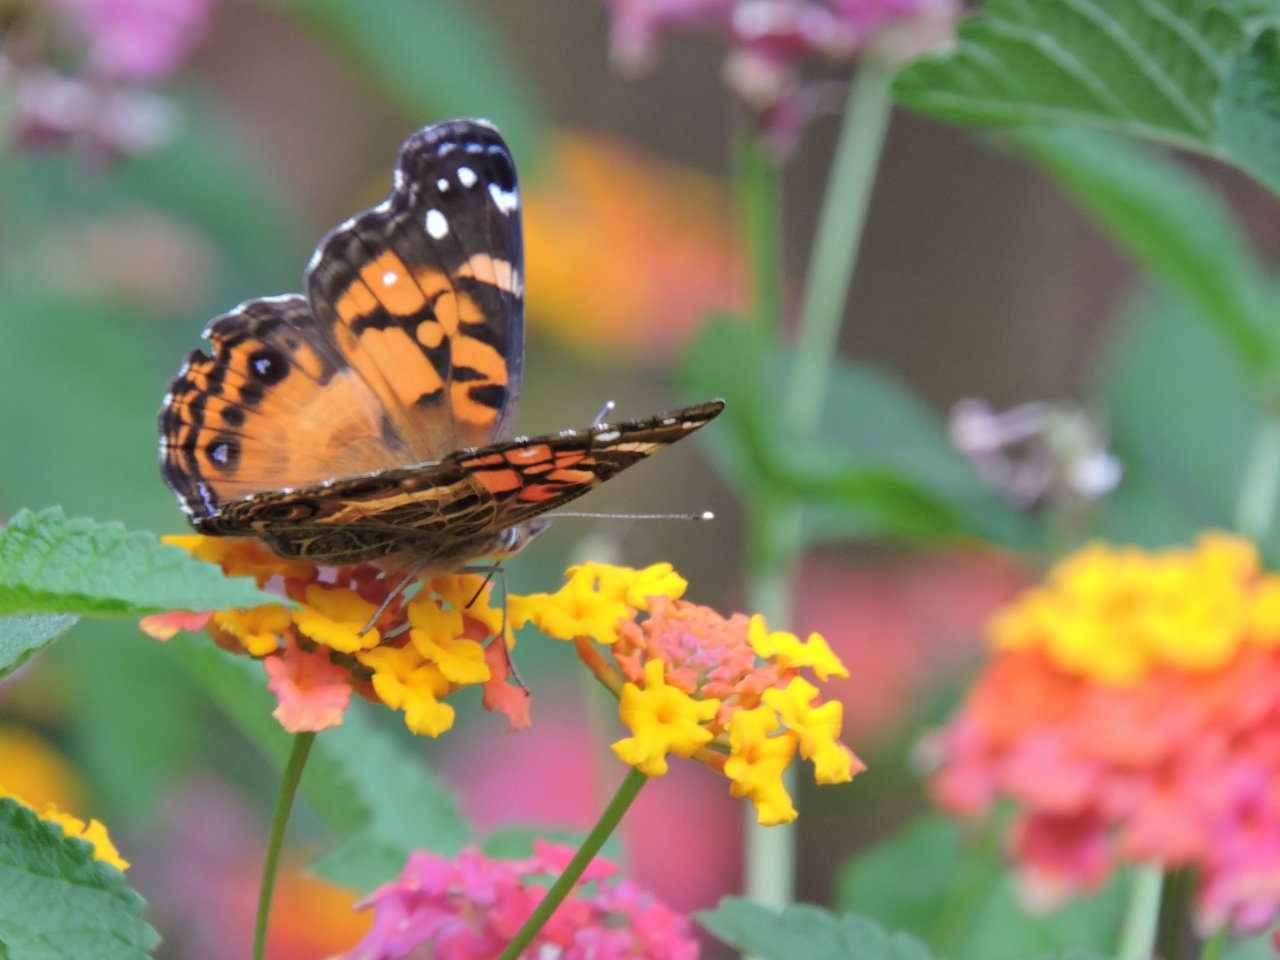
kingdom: Animalia
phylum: Arthropoda
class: Insecta
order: Lepidoptera
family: Nymphalidae
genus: Vanessa
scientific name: Vanessa virginiensis
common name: American Lady
